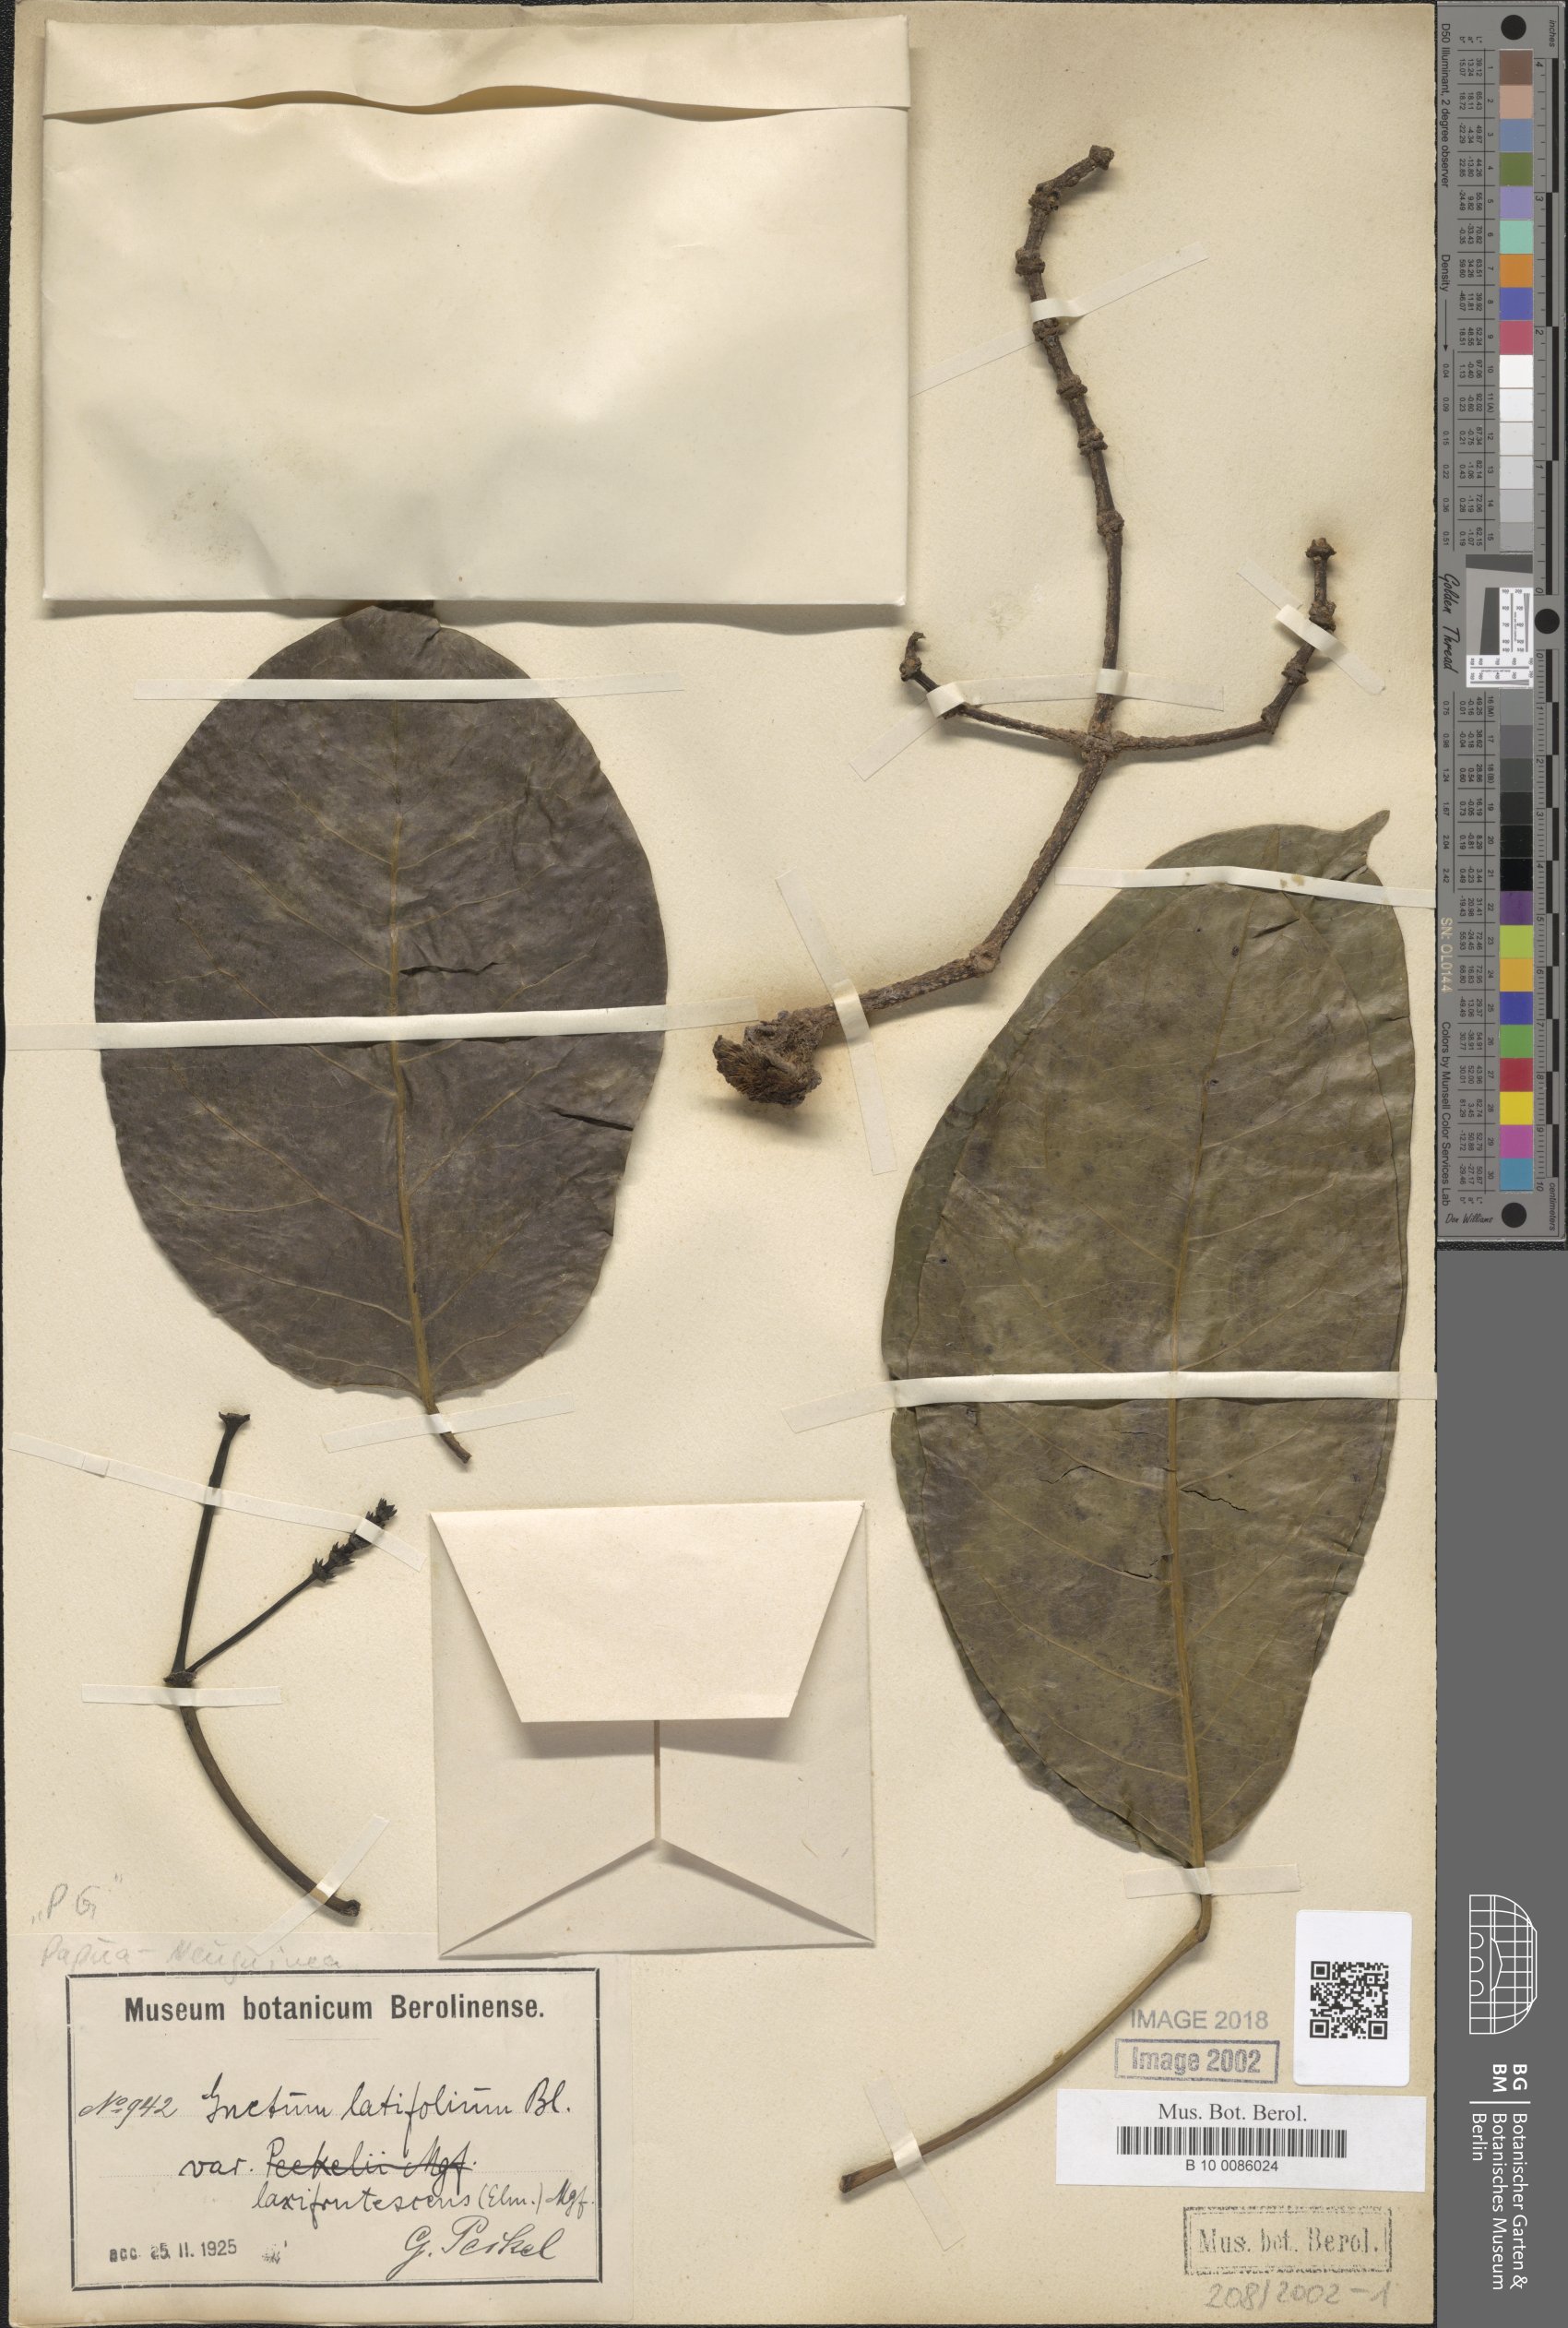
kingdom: Plantae
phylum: Tracheophyta
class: Gnetopsida
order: Gnetales
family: Gnetaceae
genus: Gnetum
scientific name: Gnetum latifolium
